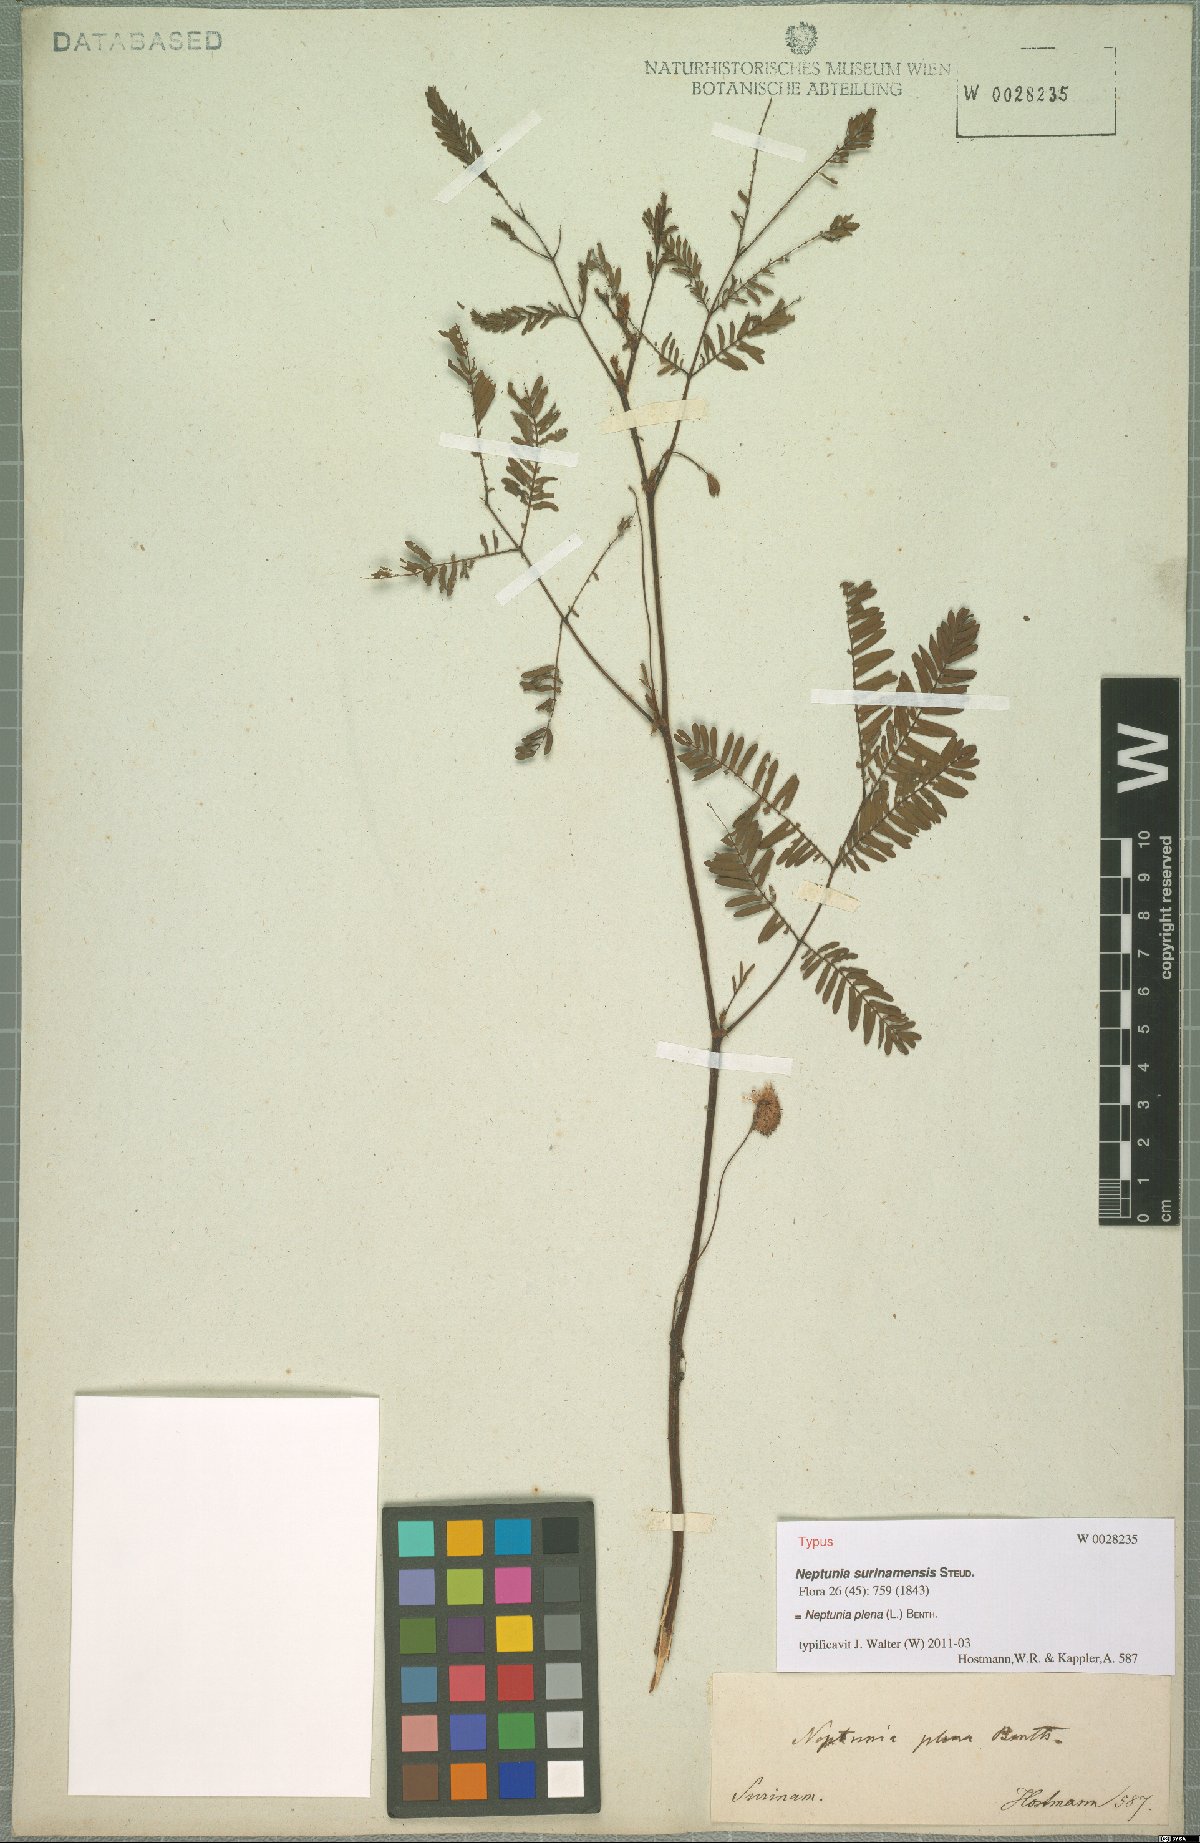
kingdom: Plantae
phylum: Tracheophyta
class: Magnoliopsida
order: Fabales
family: Fabaceae
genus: Neptunia
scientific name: Neptunia plena
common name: Dead and awake
